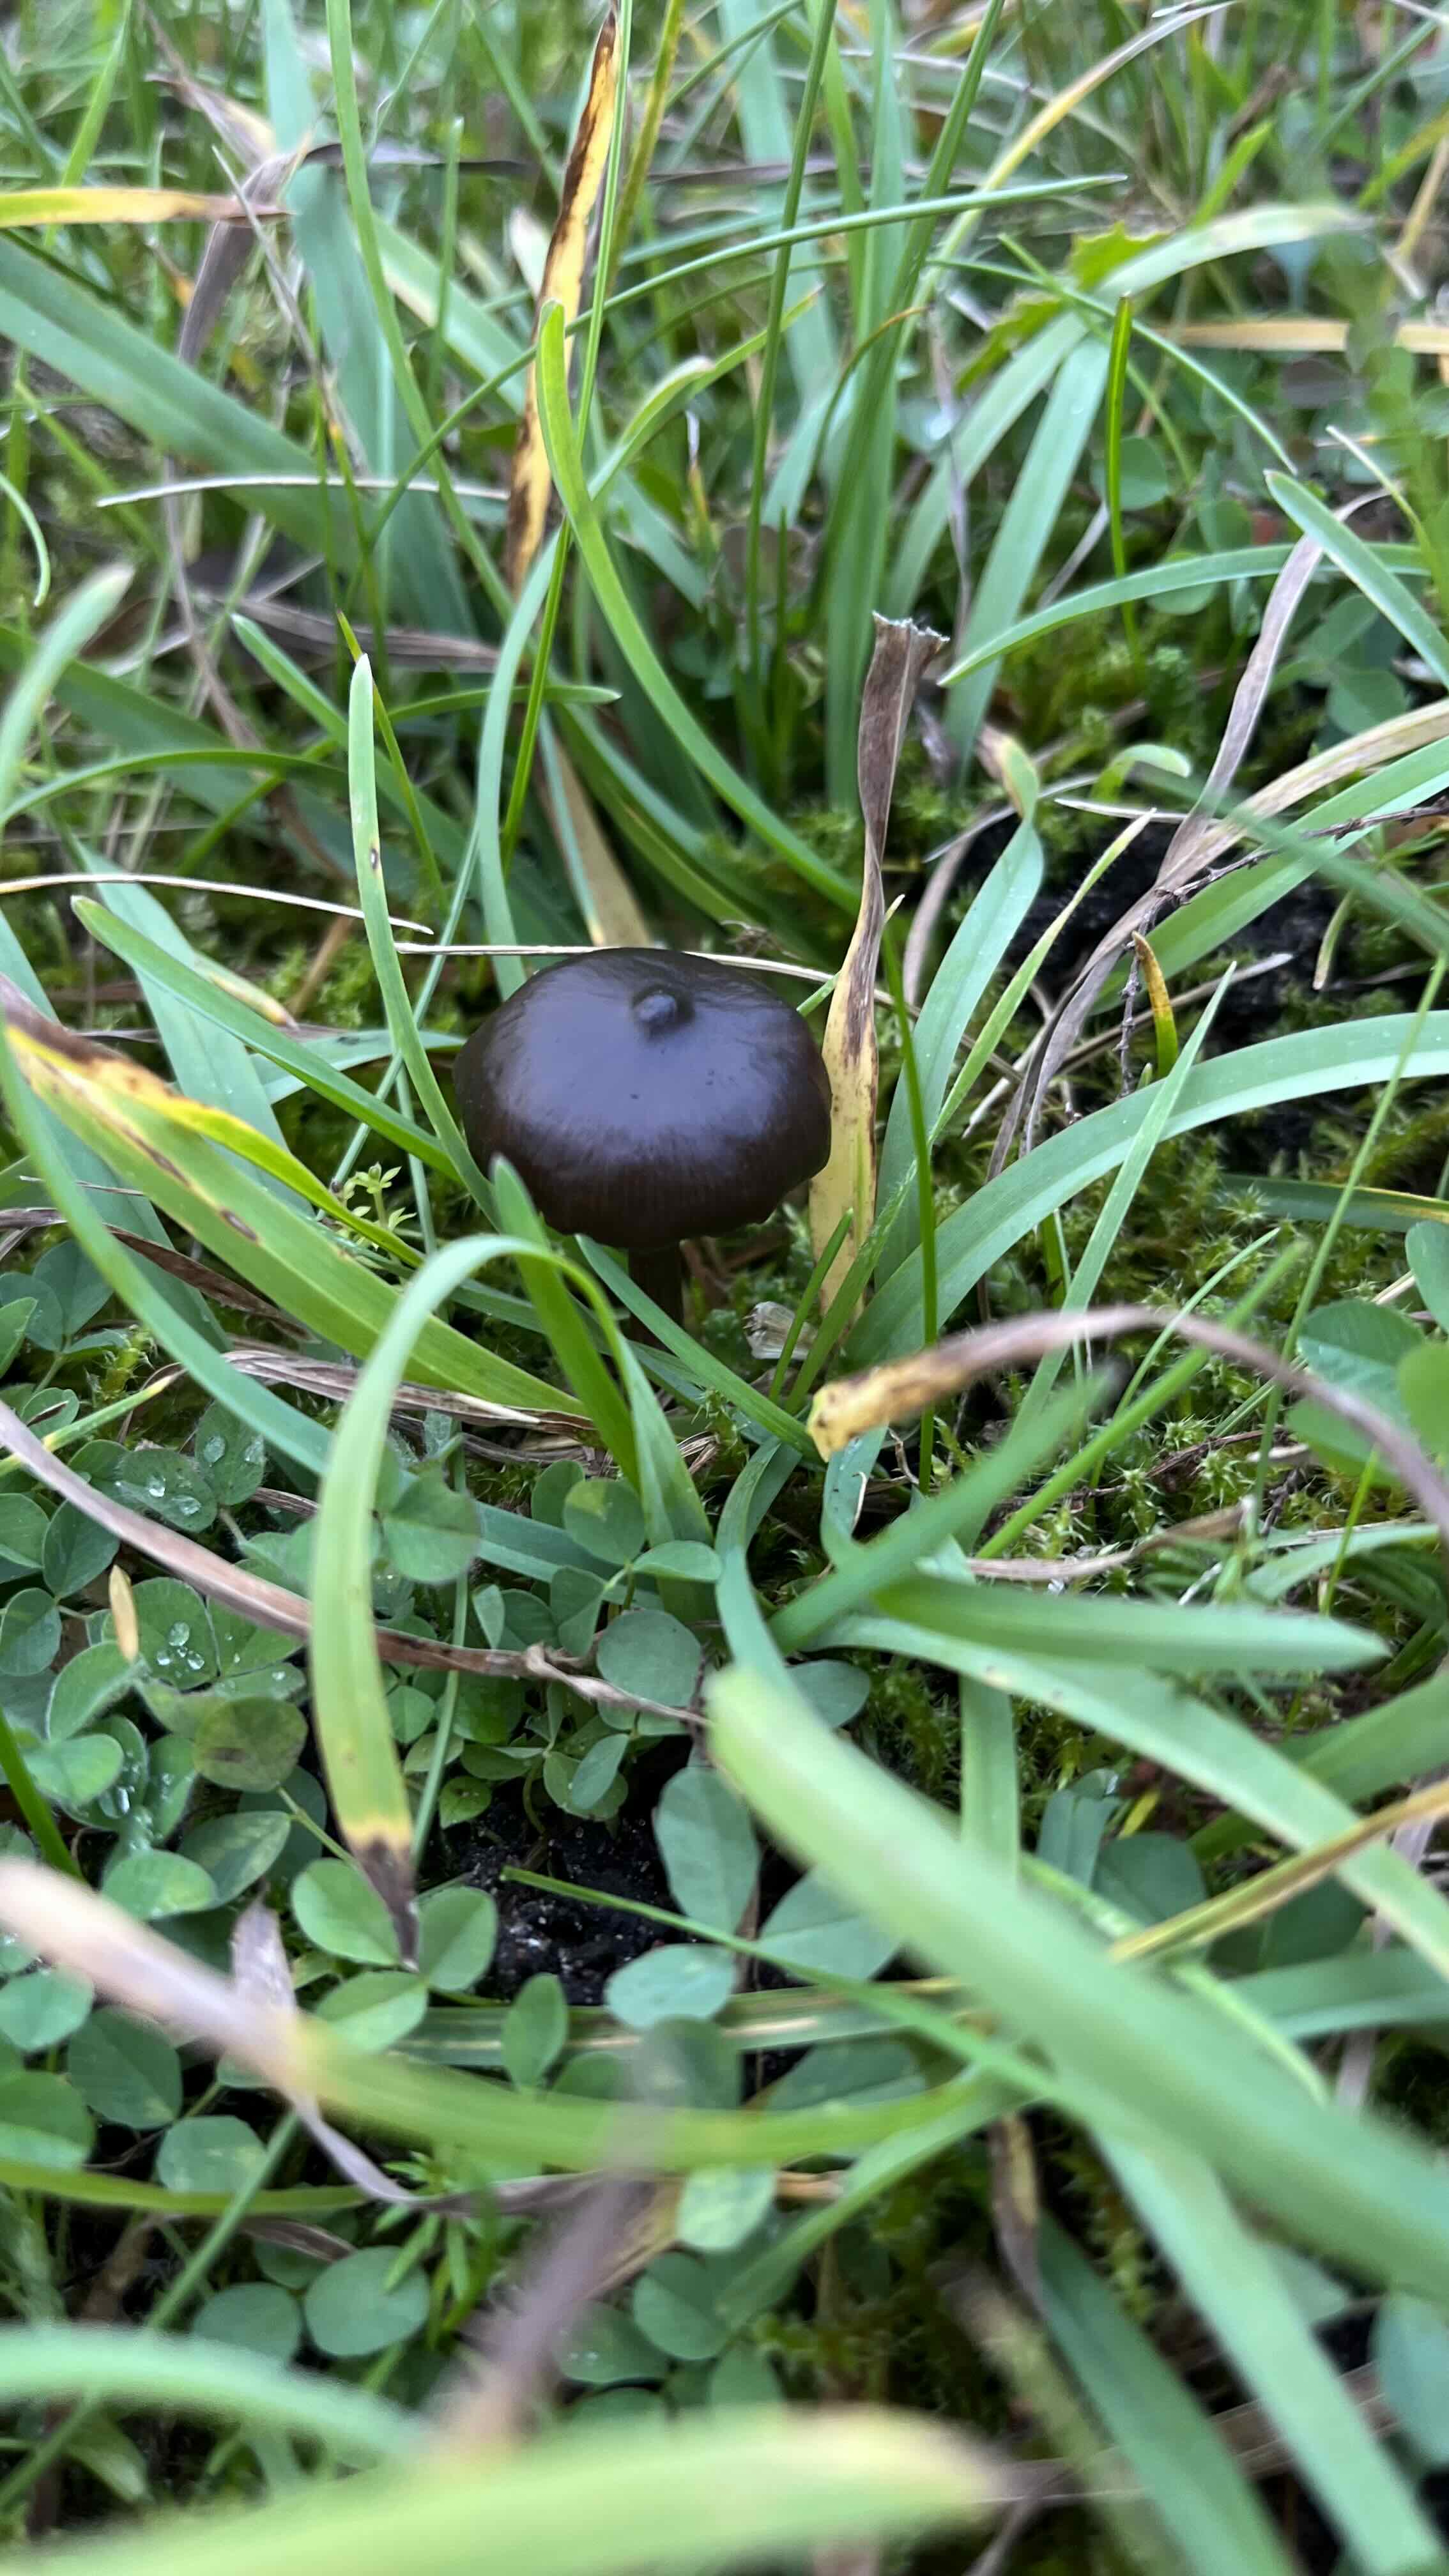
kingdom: Fungi
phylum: Basidiomycota
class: Agaricomycetes
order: Agaricales
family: Entolomataceae
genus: Entoloma
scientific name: Entoloma
